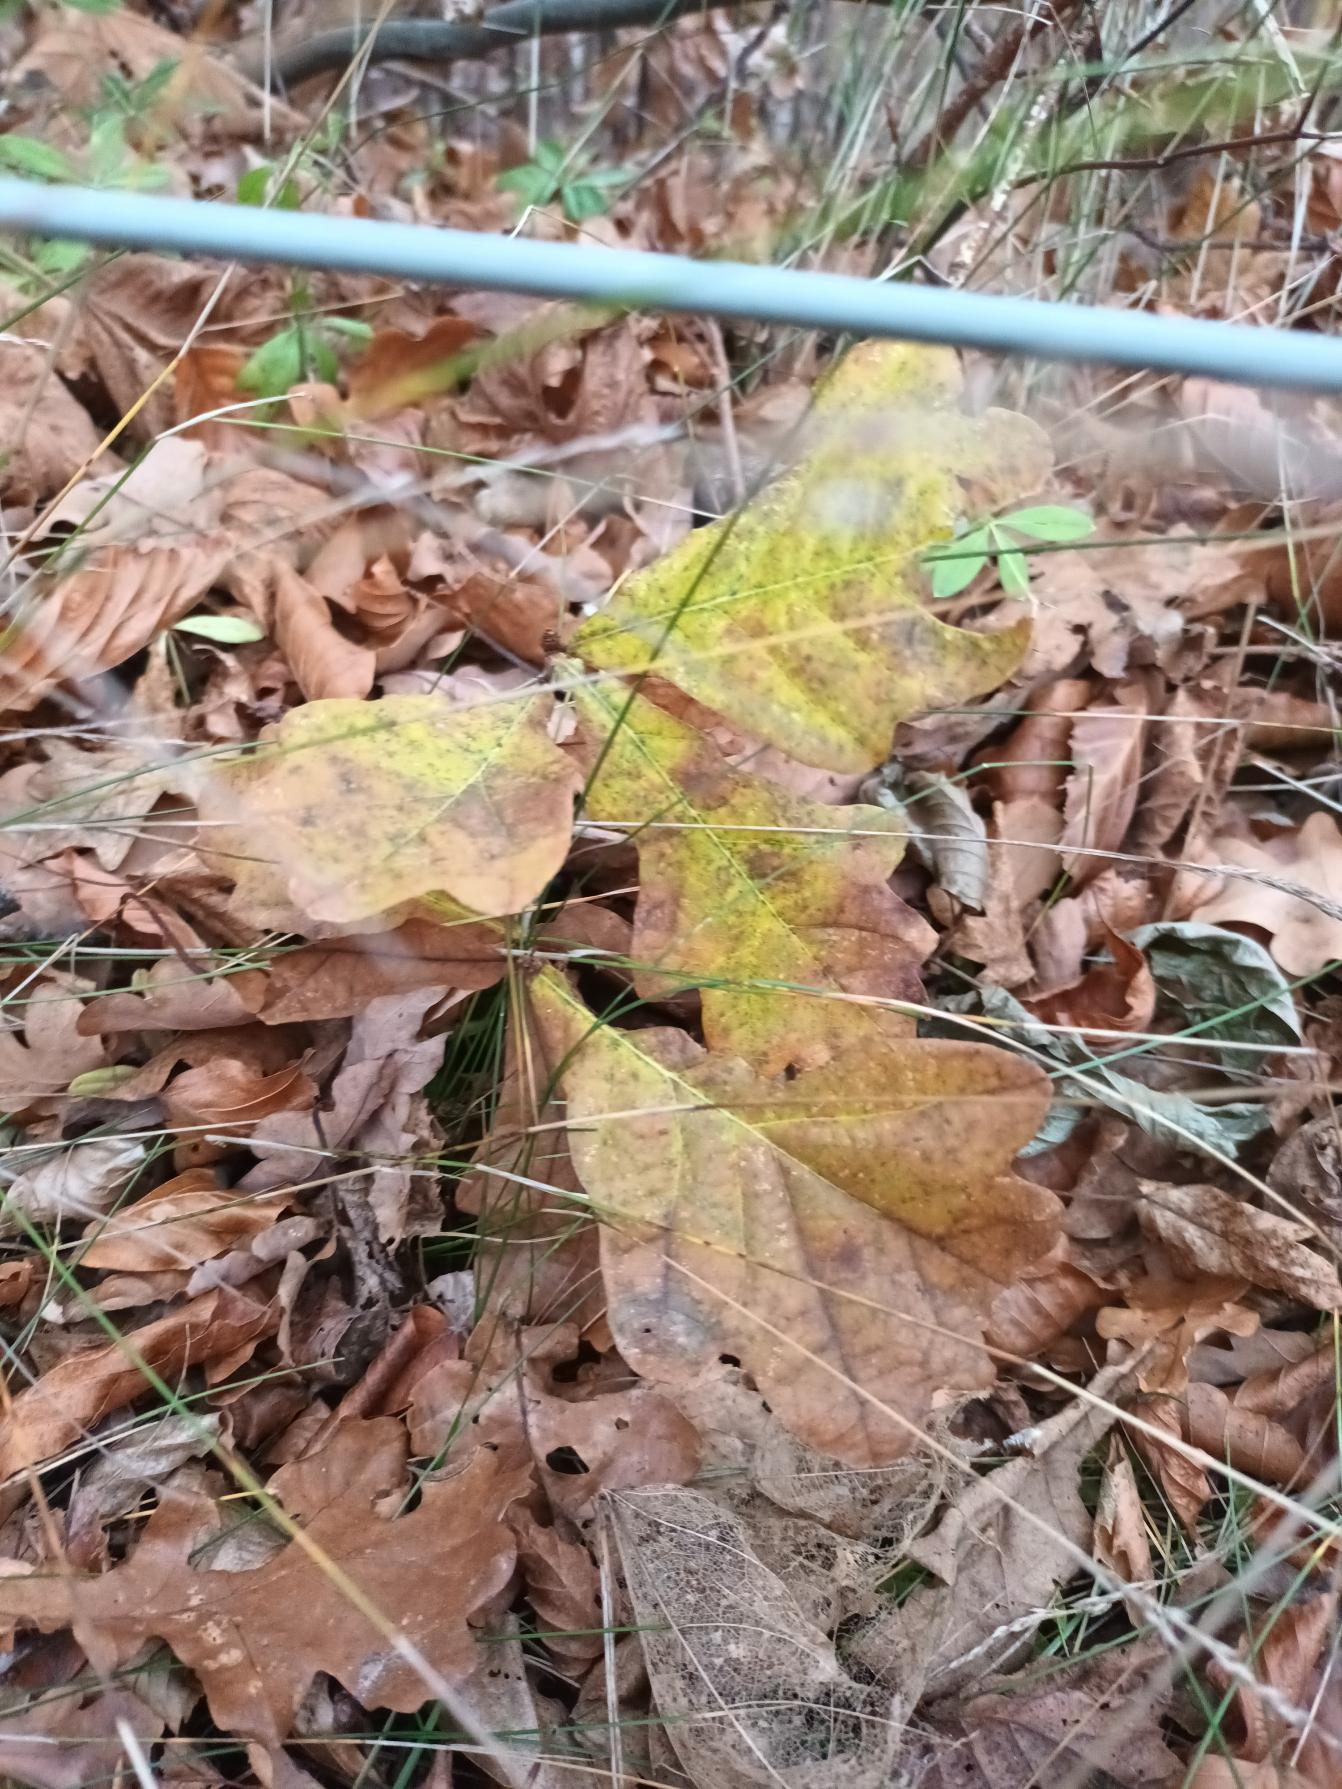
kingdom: Plantae
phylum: Tracheophyta
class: Magnoliopsida
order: Fagales
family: Fagaceae
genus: Quercus
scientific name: Quercus robur
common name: Stilk-eg/almindelig eg
